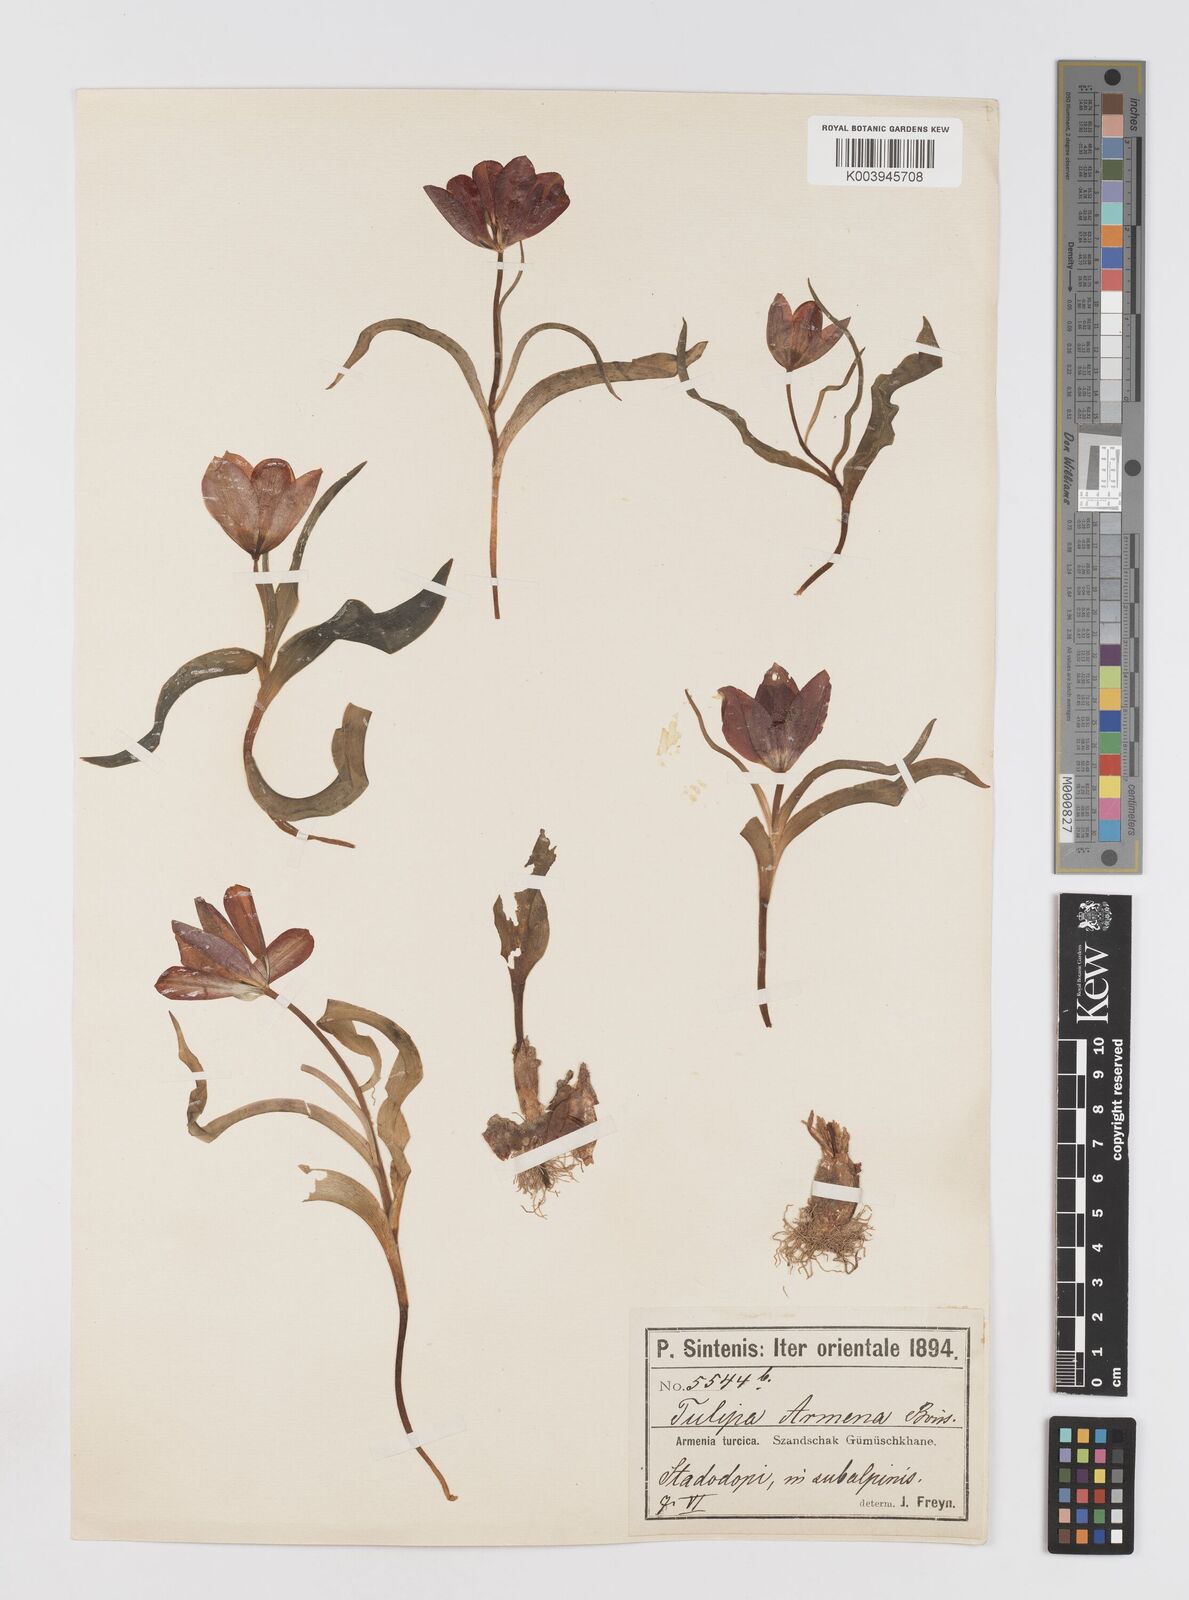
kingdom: Plantae
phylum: Tracheophyta
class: Liliopsida
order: Liliales
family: Liliaceae
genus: Tulipa
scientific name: Tulipa armena
